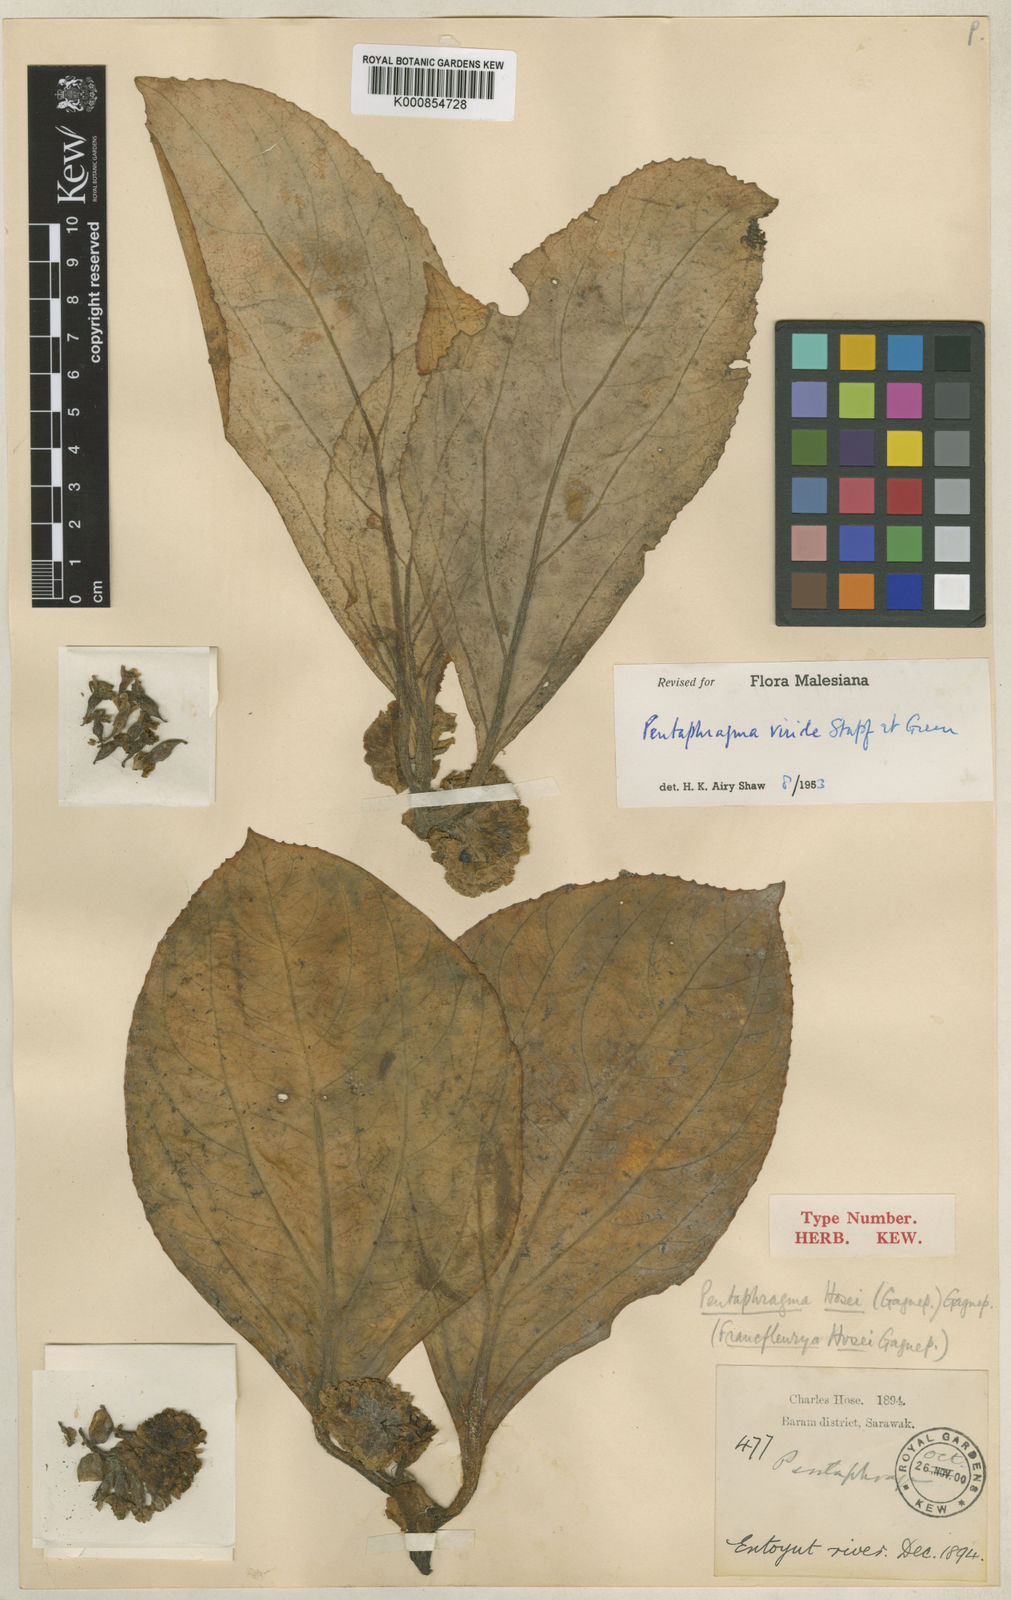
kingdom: Plantae
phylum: Tracheophyta
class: Magnoliopsida
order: Asterales
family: Pentaphragmataceae
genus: Pentaphragma
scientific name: Pentaphragma viride
